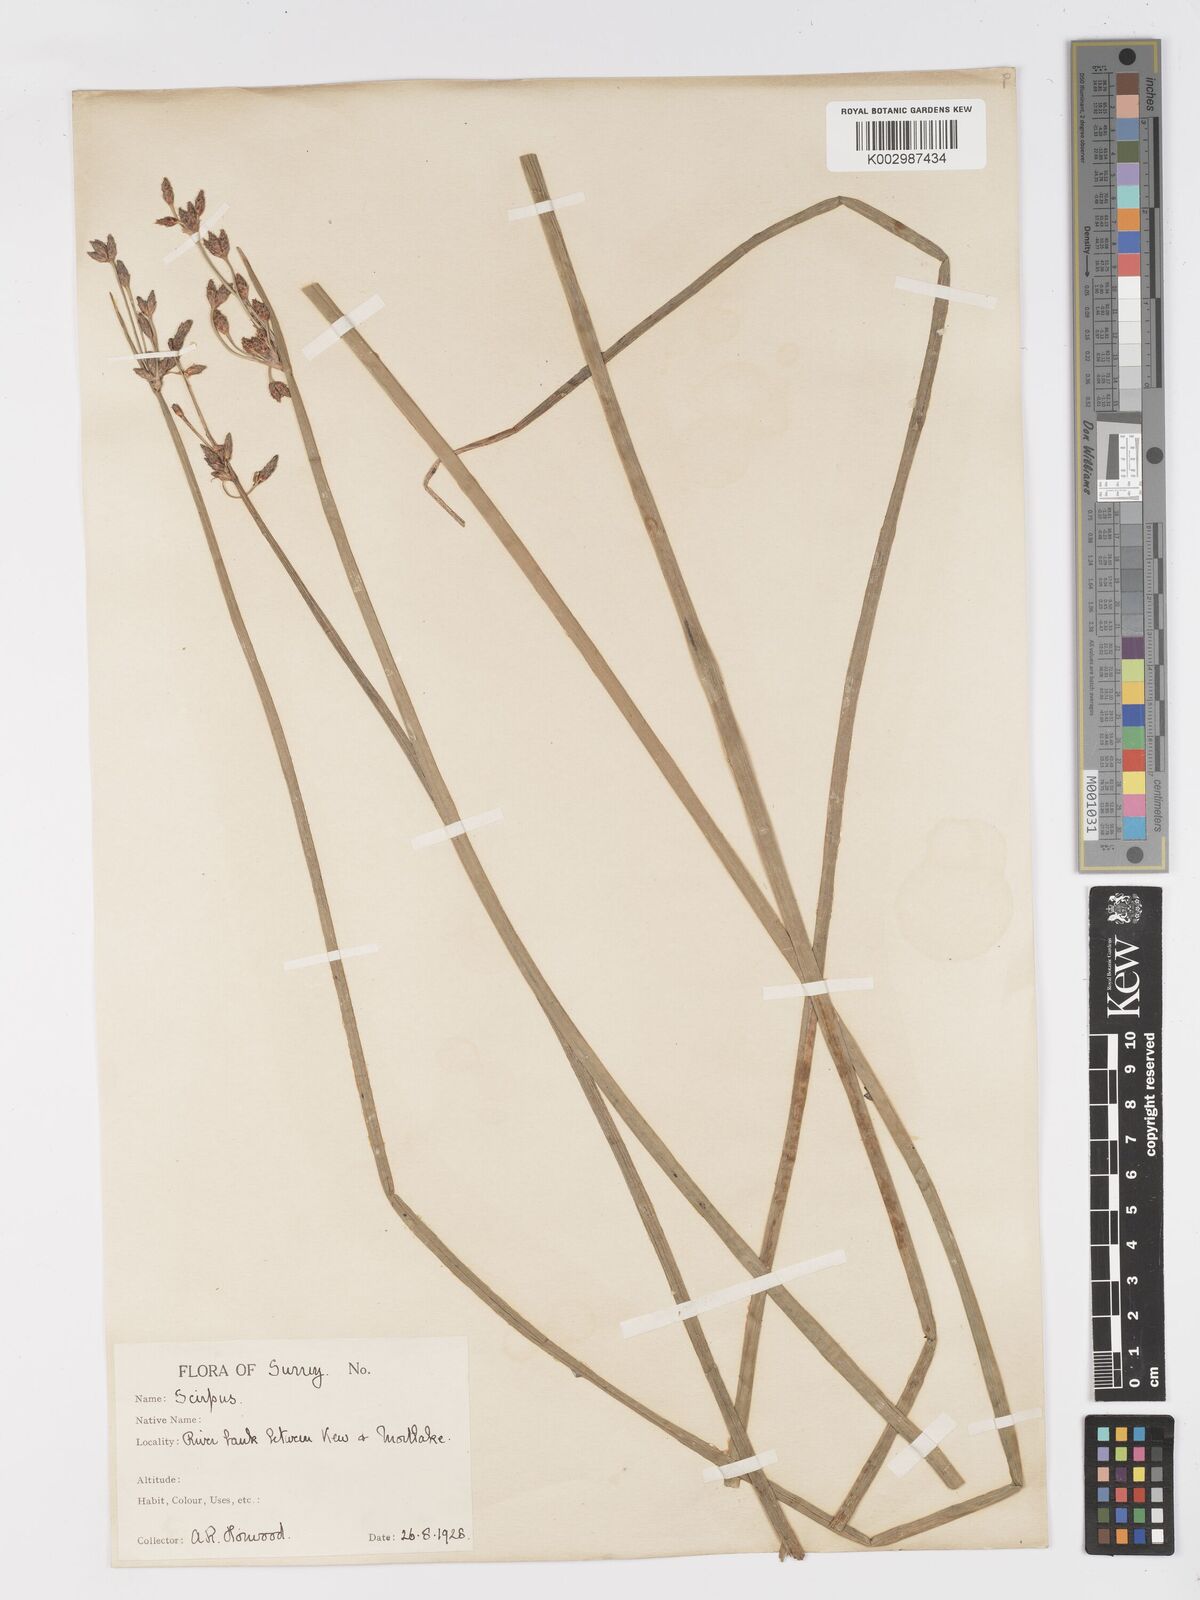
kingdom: Plantae
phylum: Tracheophyta
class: Liliopsida
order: Poales
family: Cyperaceae
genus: Schoenoplectus
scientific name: Schoenoplectus lacustris
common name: Common club-rush
